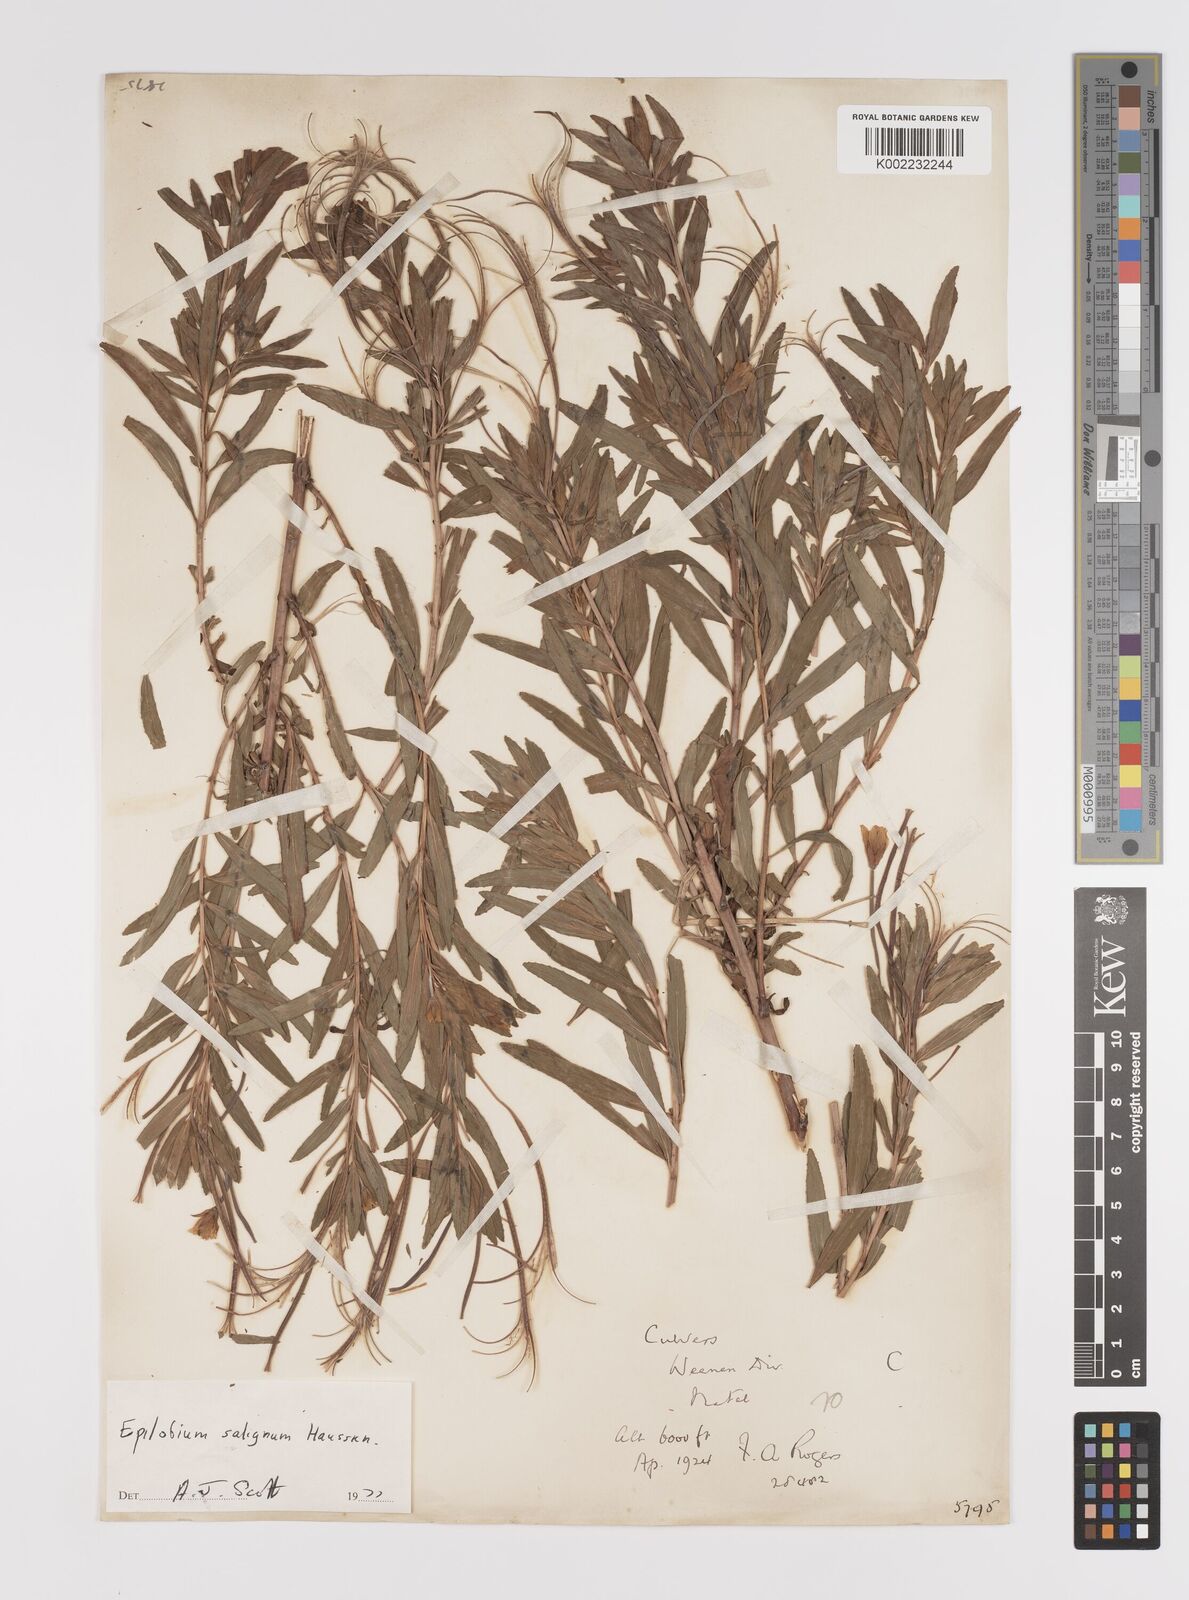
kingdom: Plantae
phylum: Tracheophyta
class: Magnoliopsida
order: Myrtales
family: Onagraceae
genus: Epilobium
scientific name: Epilobium salignum
